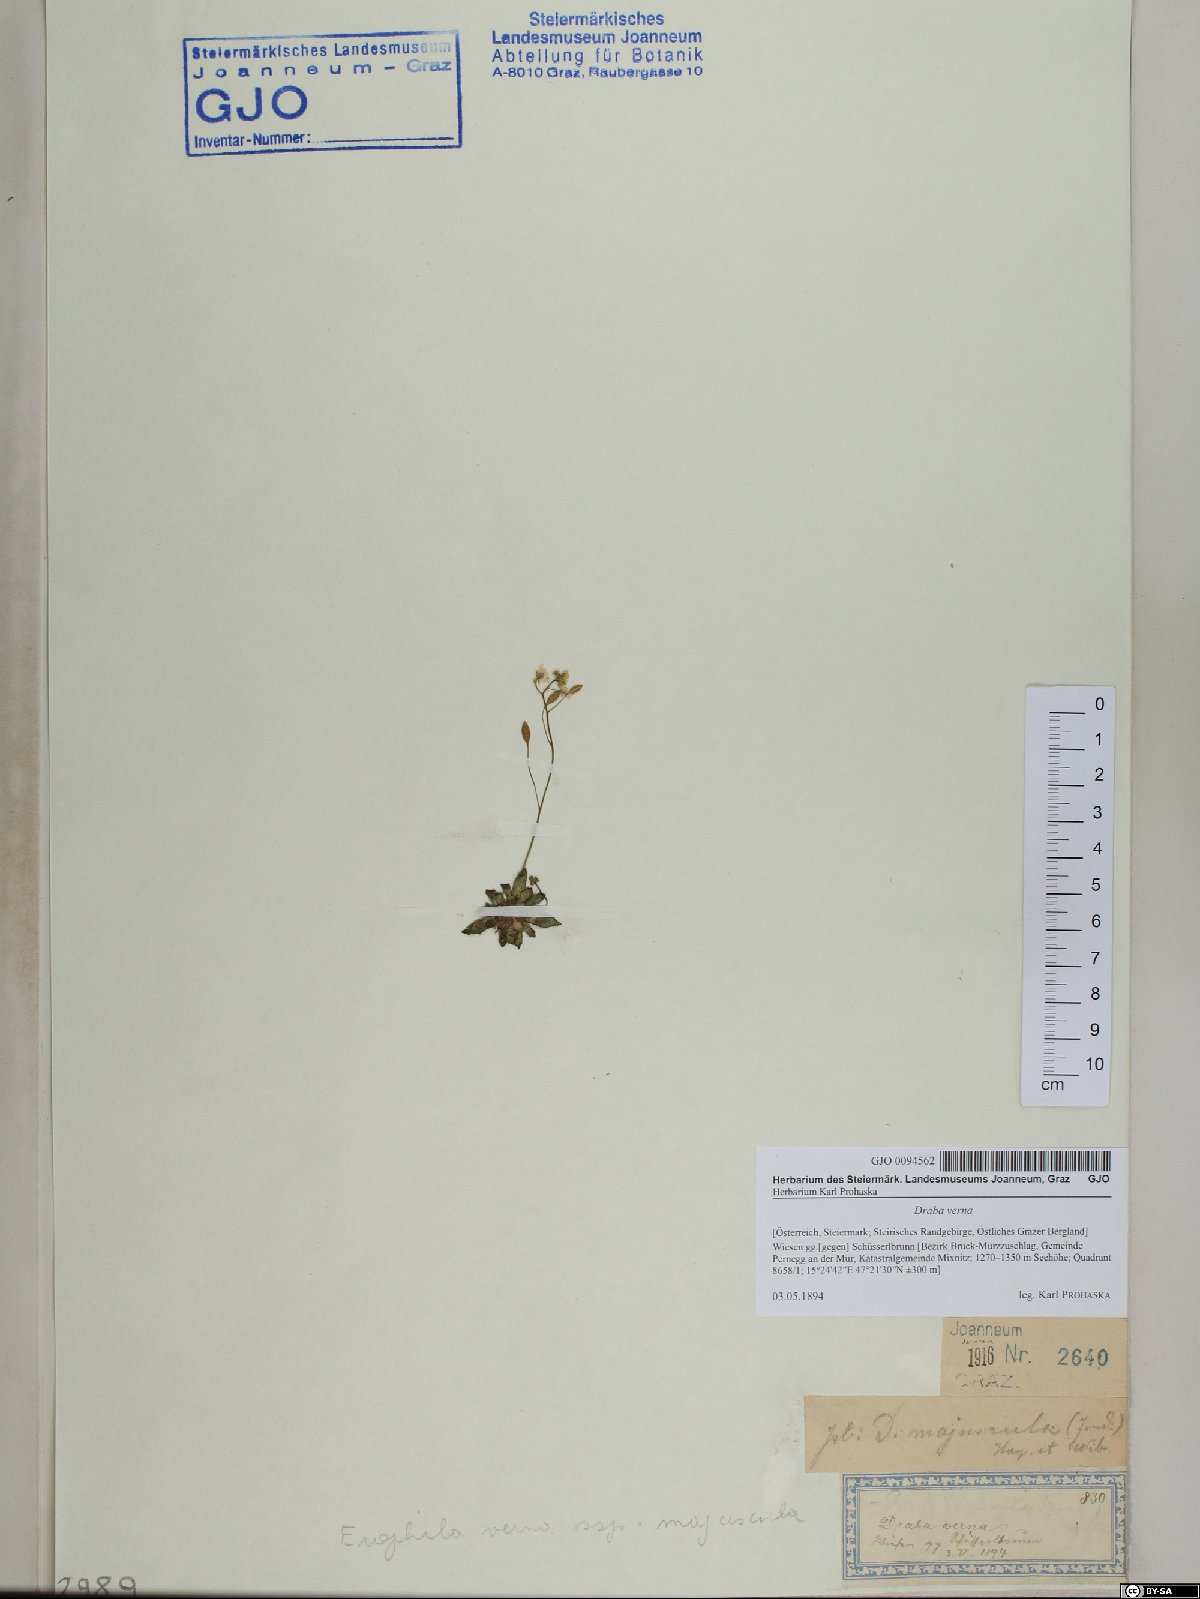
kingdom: Plantae
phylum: Tracheophyta
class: Magnoliopsida
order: Brassicales
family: Brassicaceae
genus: Draba
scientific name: Draba verna
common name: Spring draba
